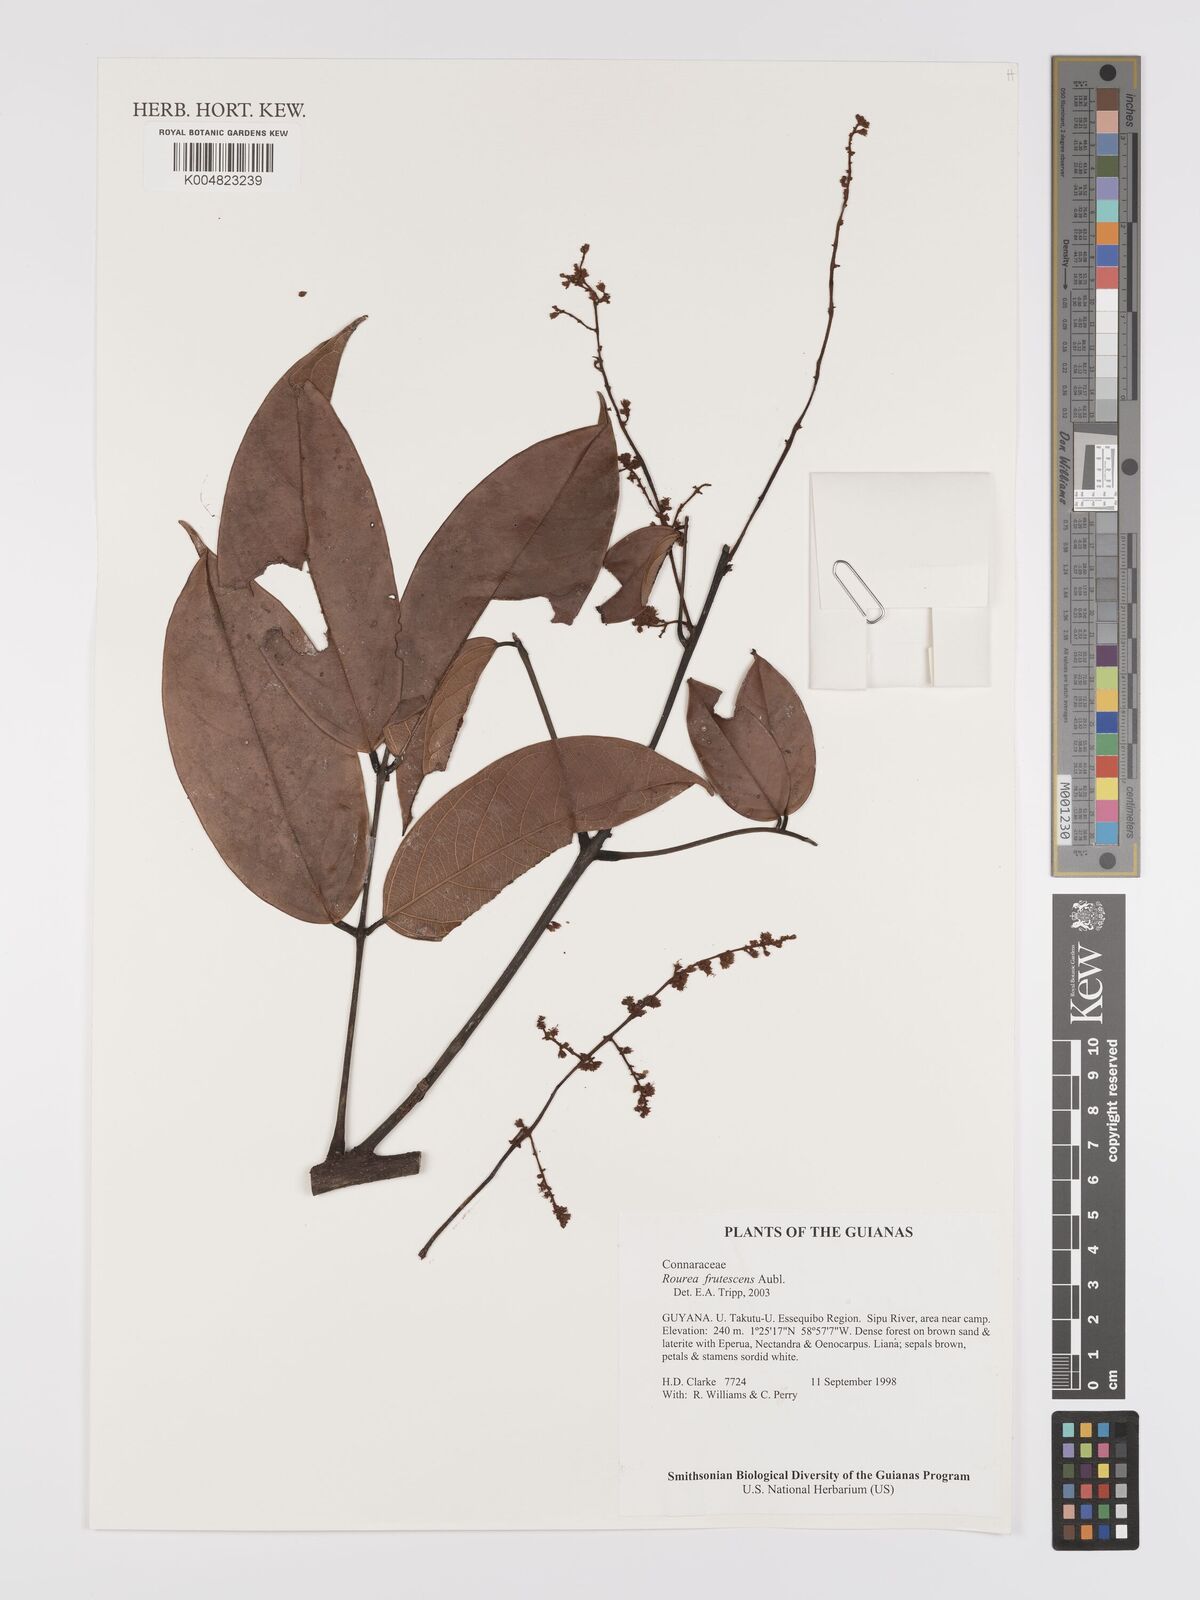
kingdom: Plantae
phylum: Tracheophyta
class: Magnoliopsida
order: Oxalidales
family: Connaraceae
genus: Rourea
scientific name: Rourea frutescens
